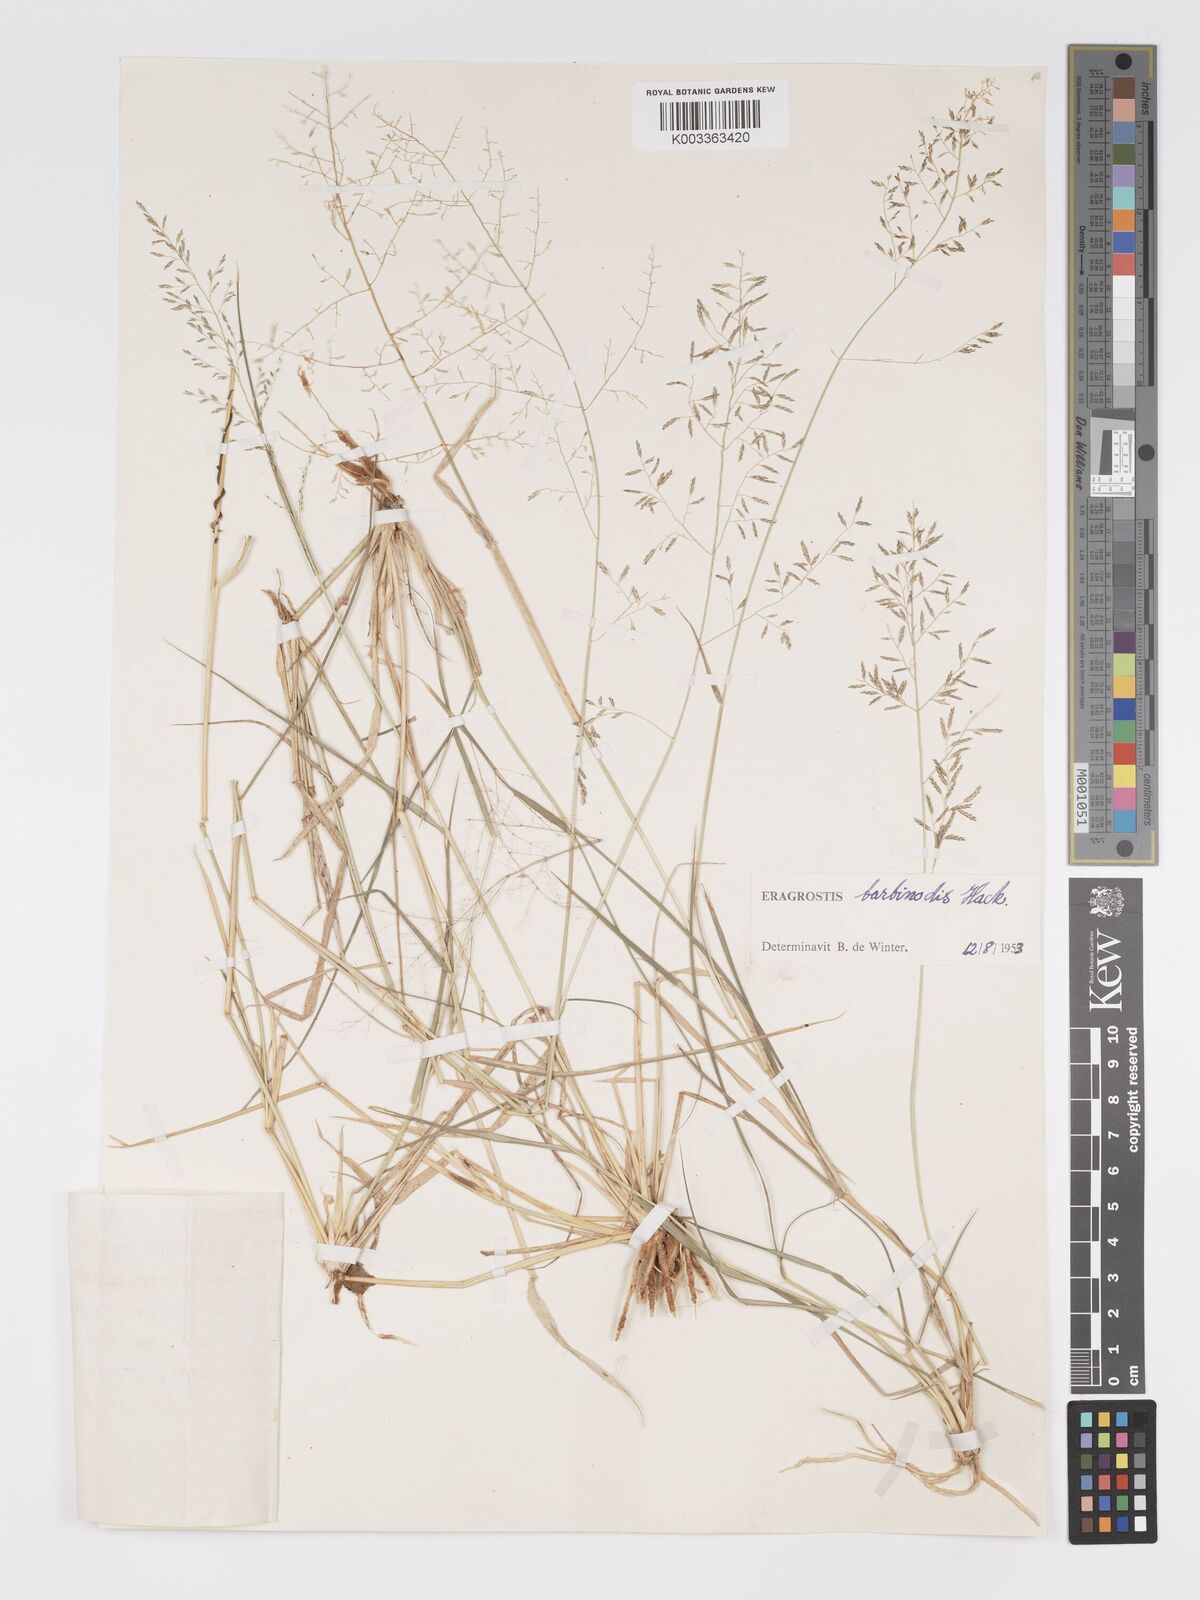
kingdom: Plantae
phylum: Tracheophyta
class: Liliopsida
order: Poales
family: Poaceae
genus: Eragrostis
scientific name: Eragrostis barbinodis
